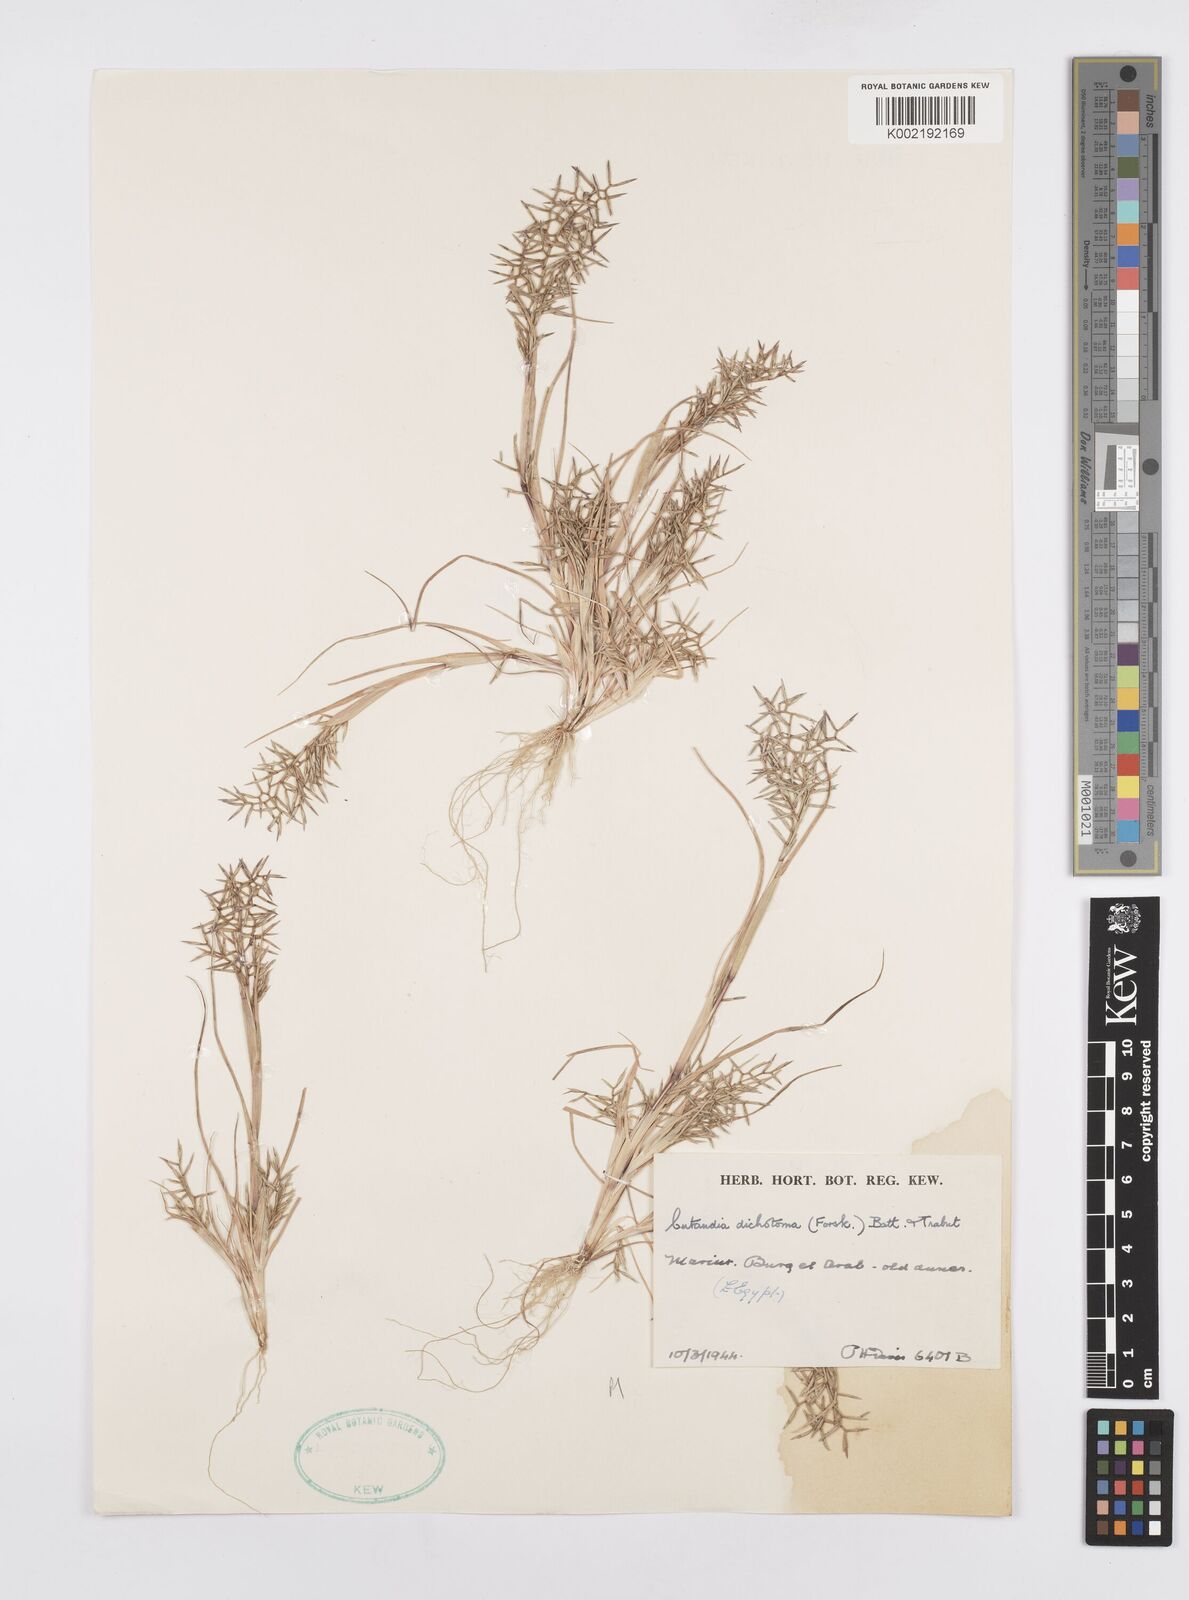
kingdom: Plantae
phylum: Tracheophyta
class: Liliopsida
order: Poales
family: Poaceae
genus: Cutandia
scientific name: Cutandia dichotoma
